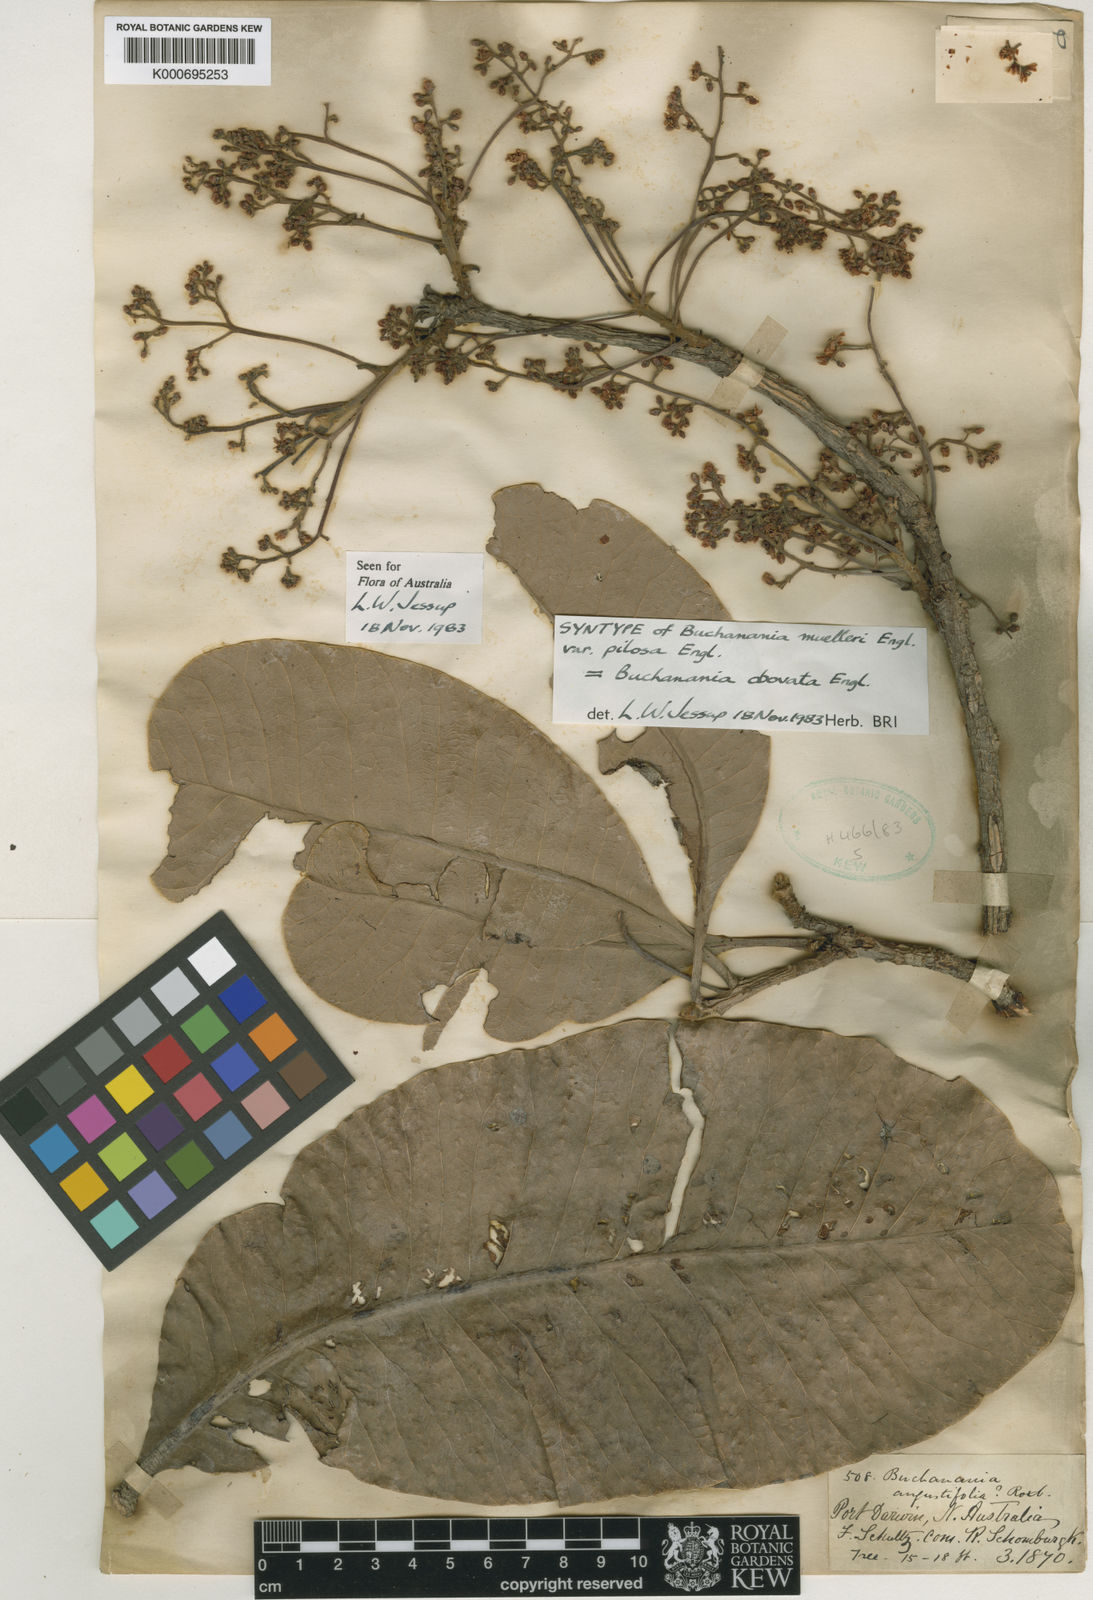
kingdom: Plantae
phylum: Tracheophyta
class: Magnoliopsida
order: Sapindales
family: Anacardiaceae
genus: Buchanania
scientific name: Buchanania arborescens
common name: Sparrow’s mango
